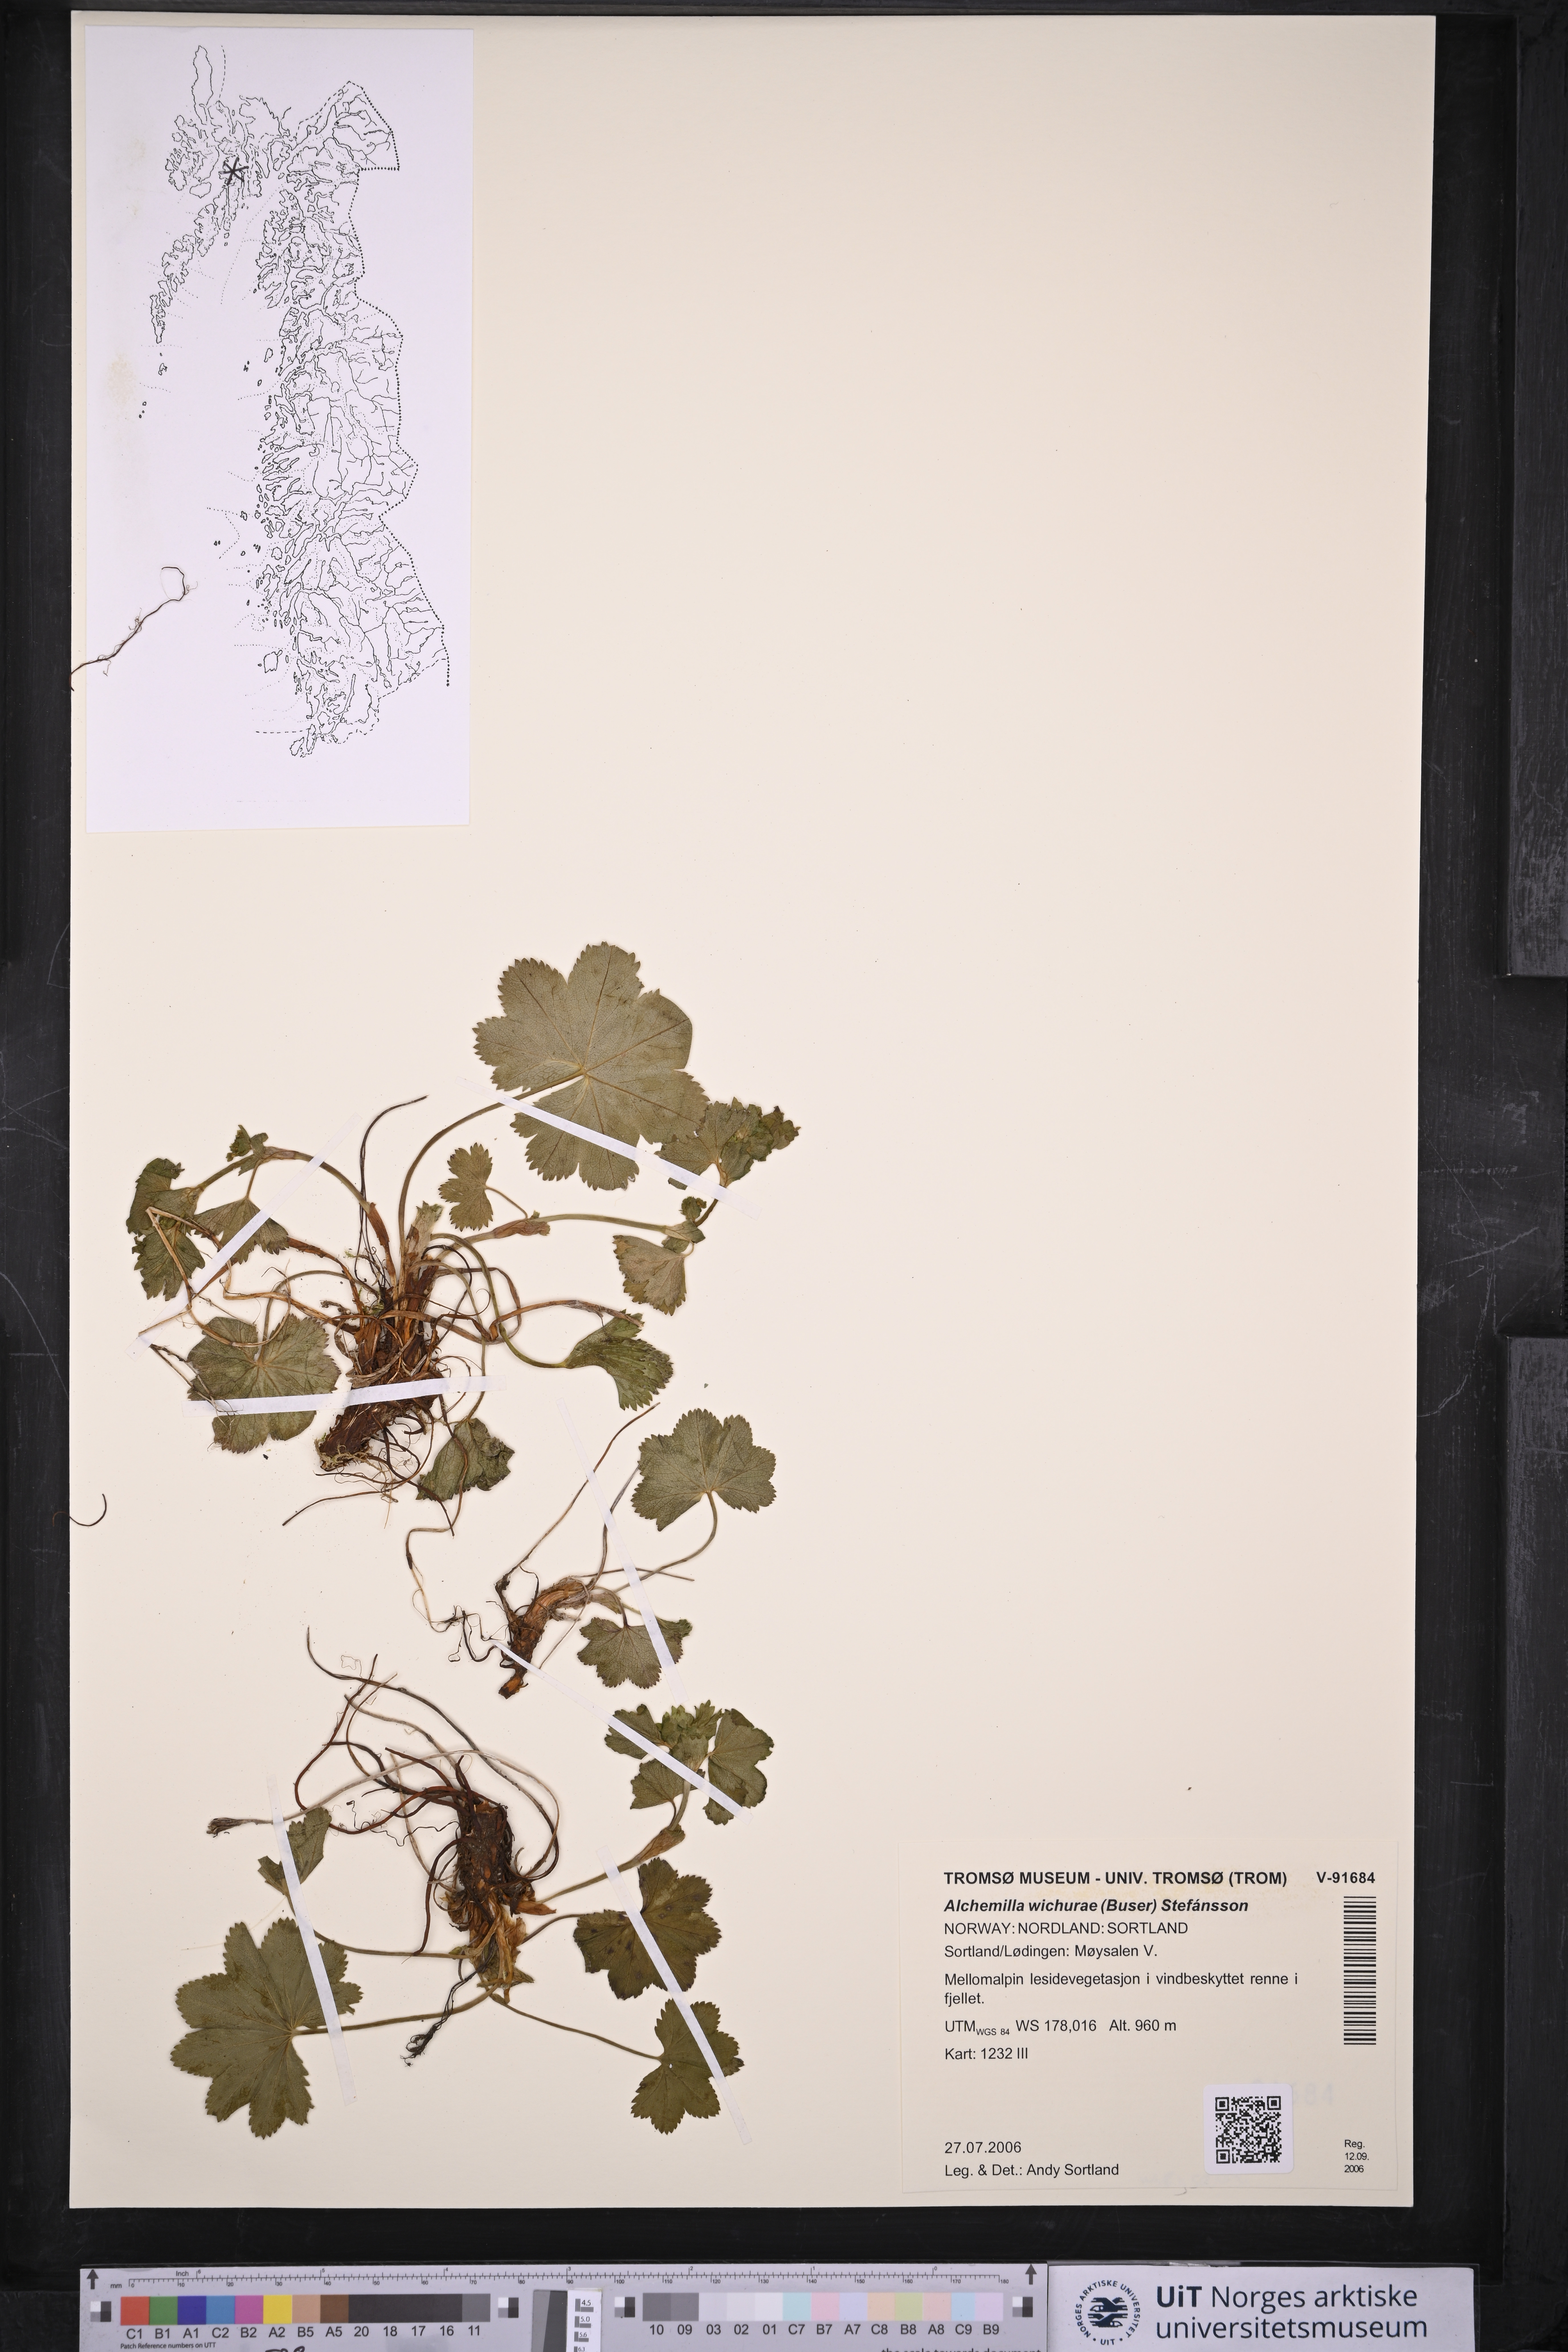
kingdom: Plantae
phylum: Tracheophyta
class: Magnoliopsida
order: Rosales
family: Rosaceae
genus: Alchemilla
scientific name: Alchemilla wichurae
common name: Rock lady's mantle
